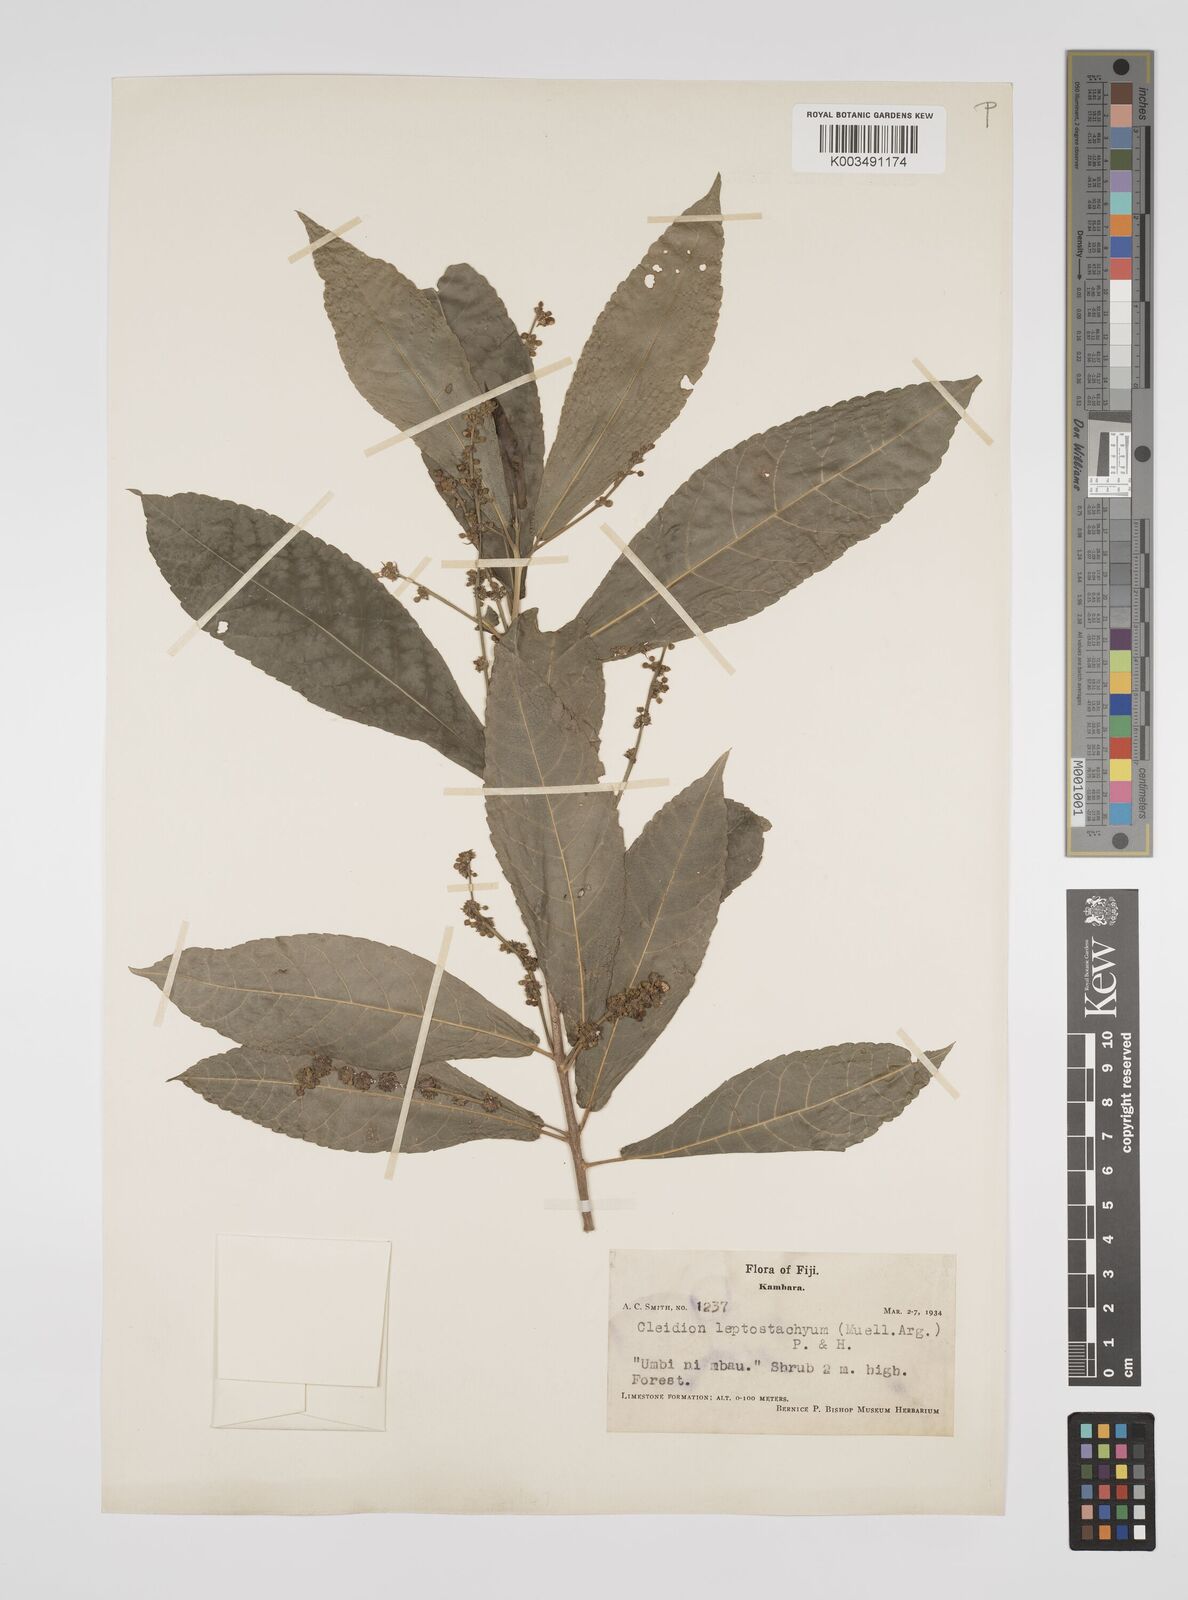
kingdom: Plantae
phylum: Tracheophyta
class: Magnoliopsida
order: Malpighiales
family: Euphorbiaceae
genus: Cleidion
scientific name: Cleidion leptostachyum
